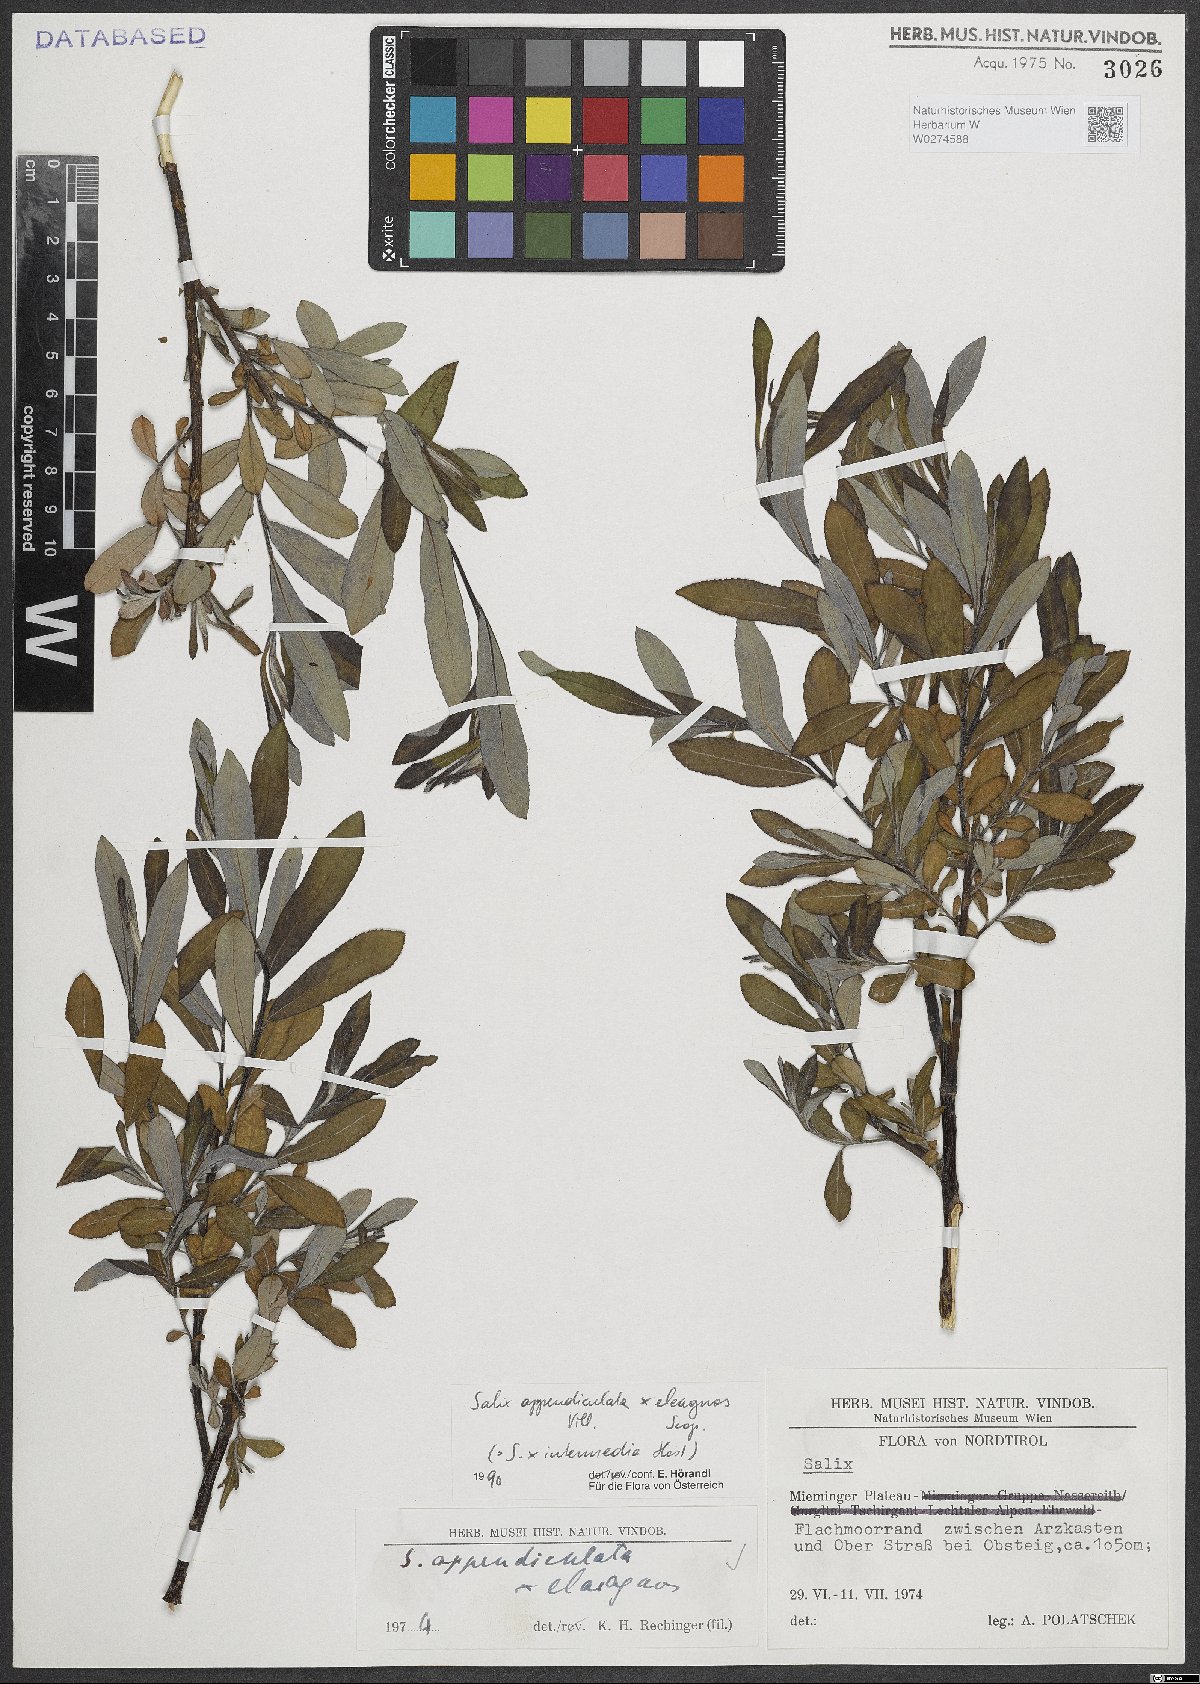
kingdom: Plantae
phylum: Tracheophyta
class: Magnoliopsida
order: Malpighiales
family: Salicaceae
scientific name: Salicaceae
